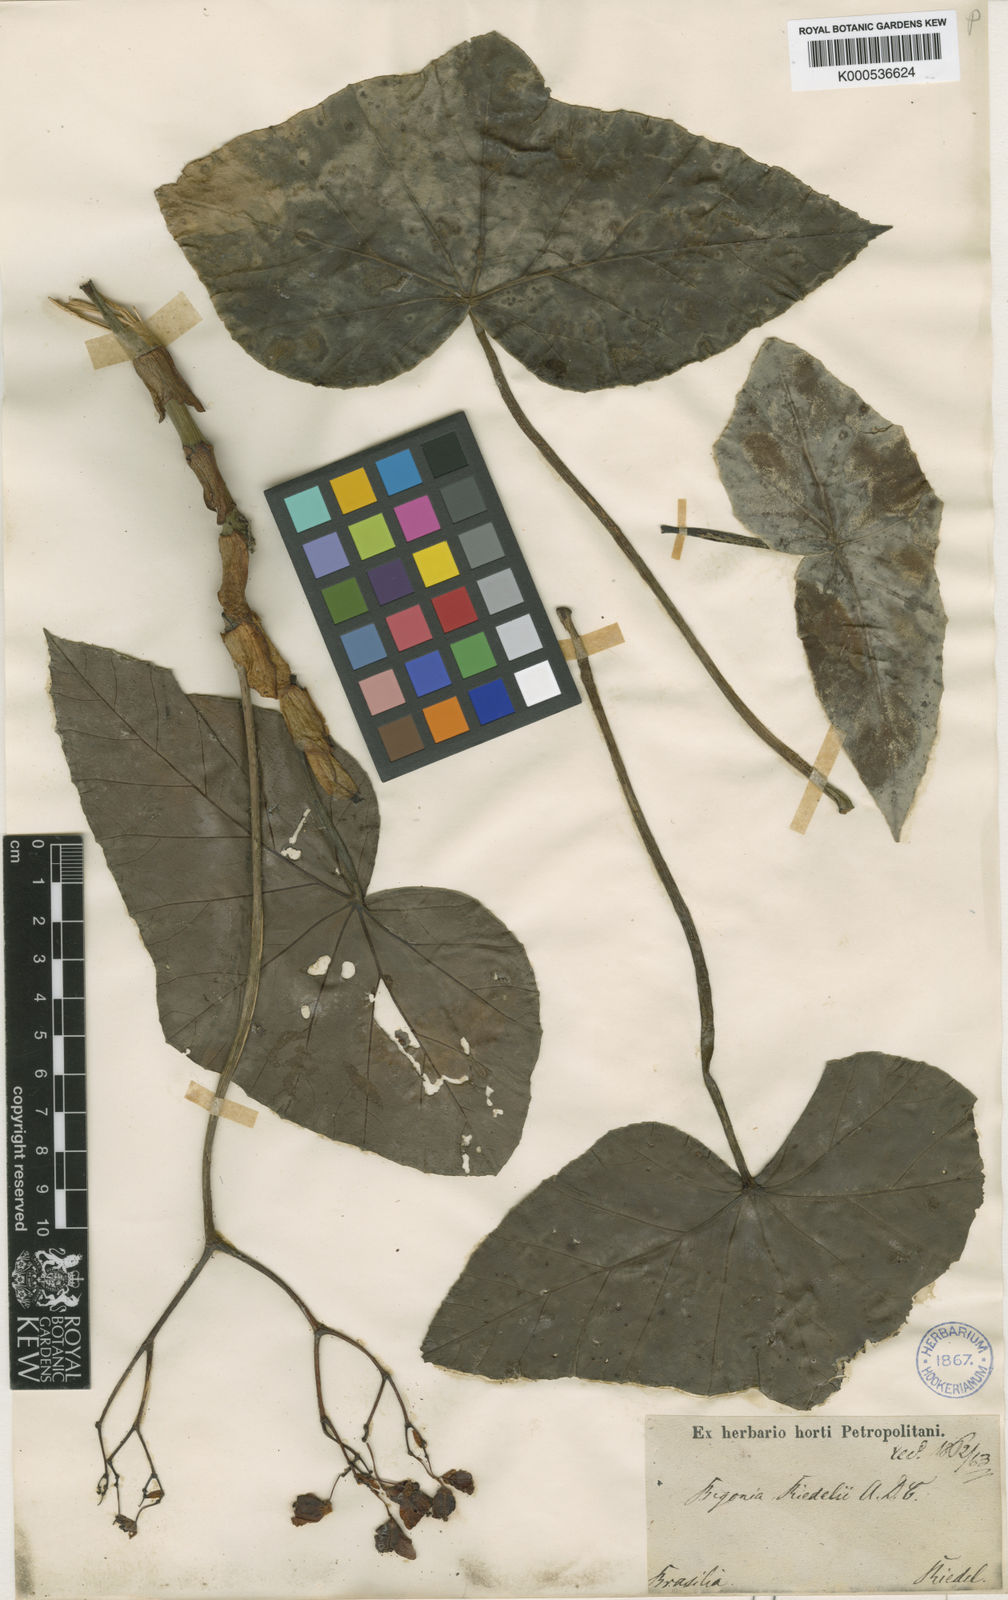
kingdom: Plantae
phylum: Tracheophyta
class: Magnoliopsida
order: Cucurbitales
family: Begoniaceae
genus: Begonia
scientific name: Begonia riedelii
